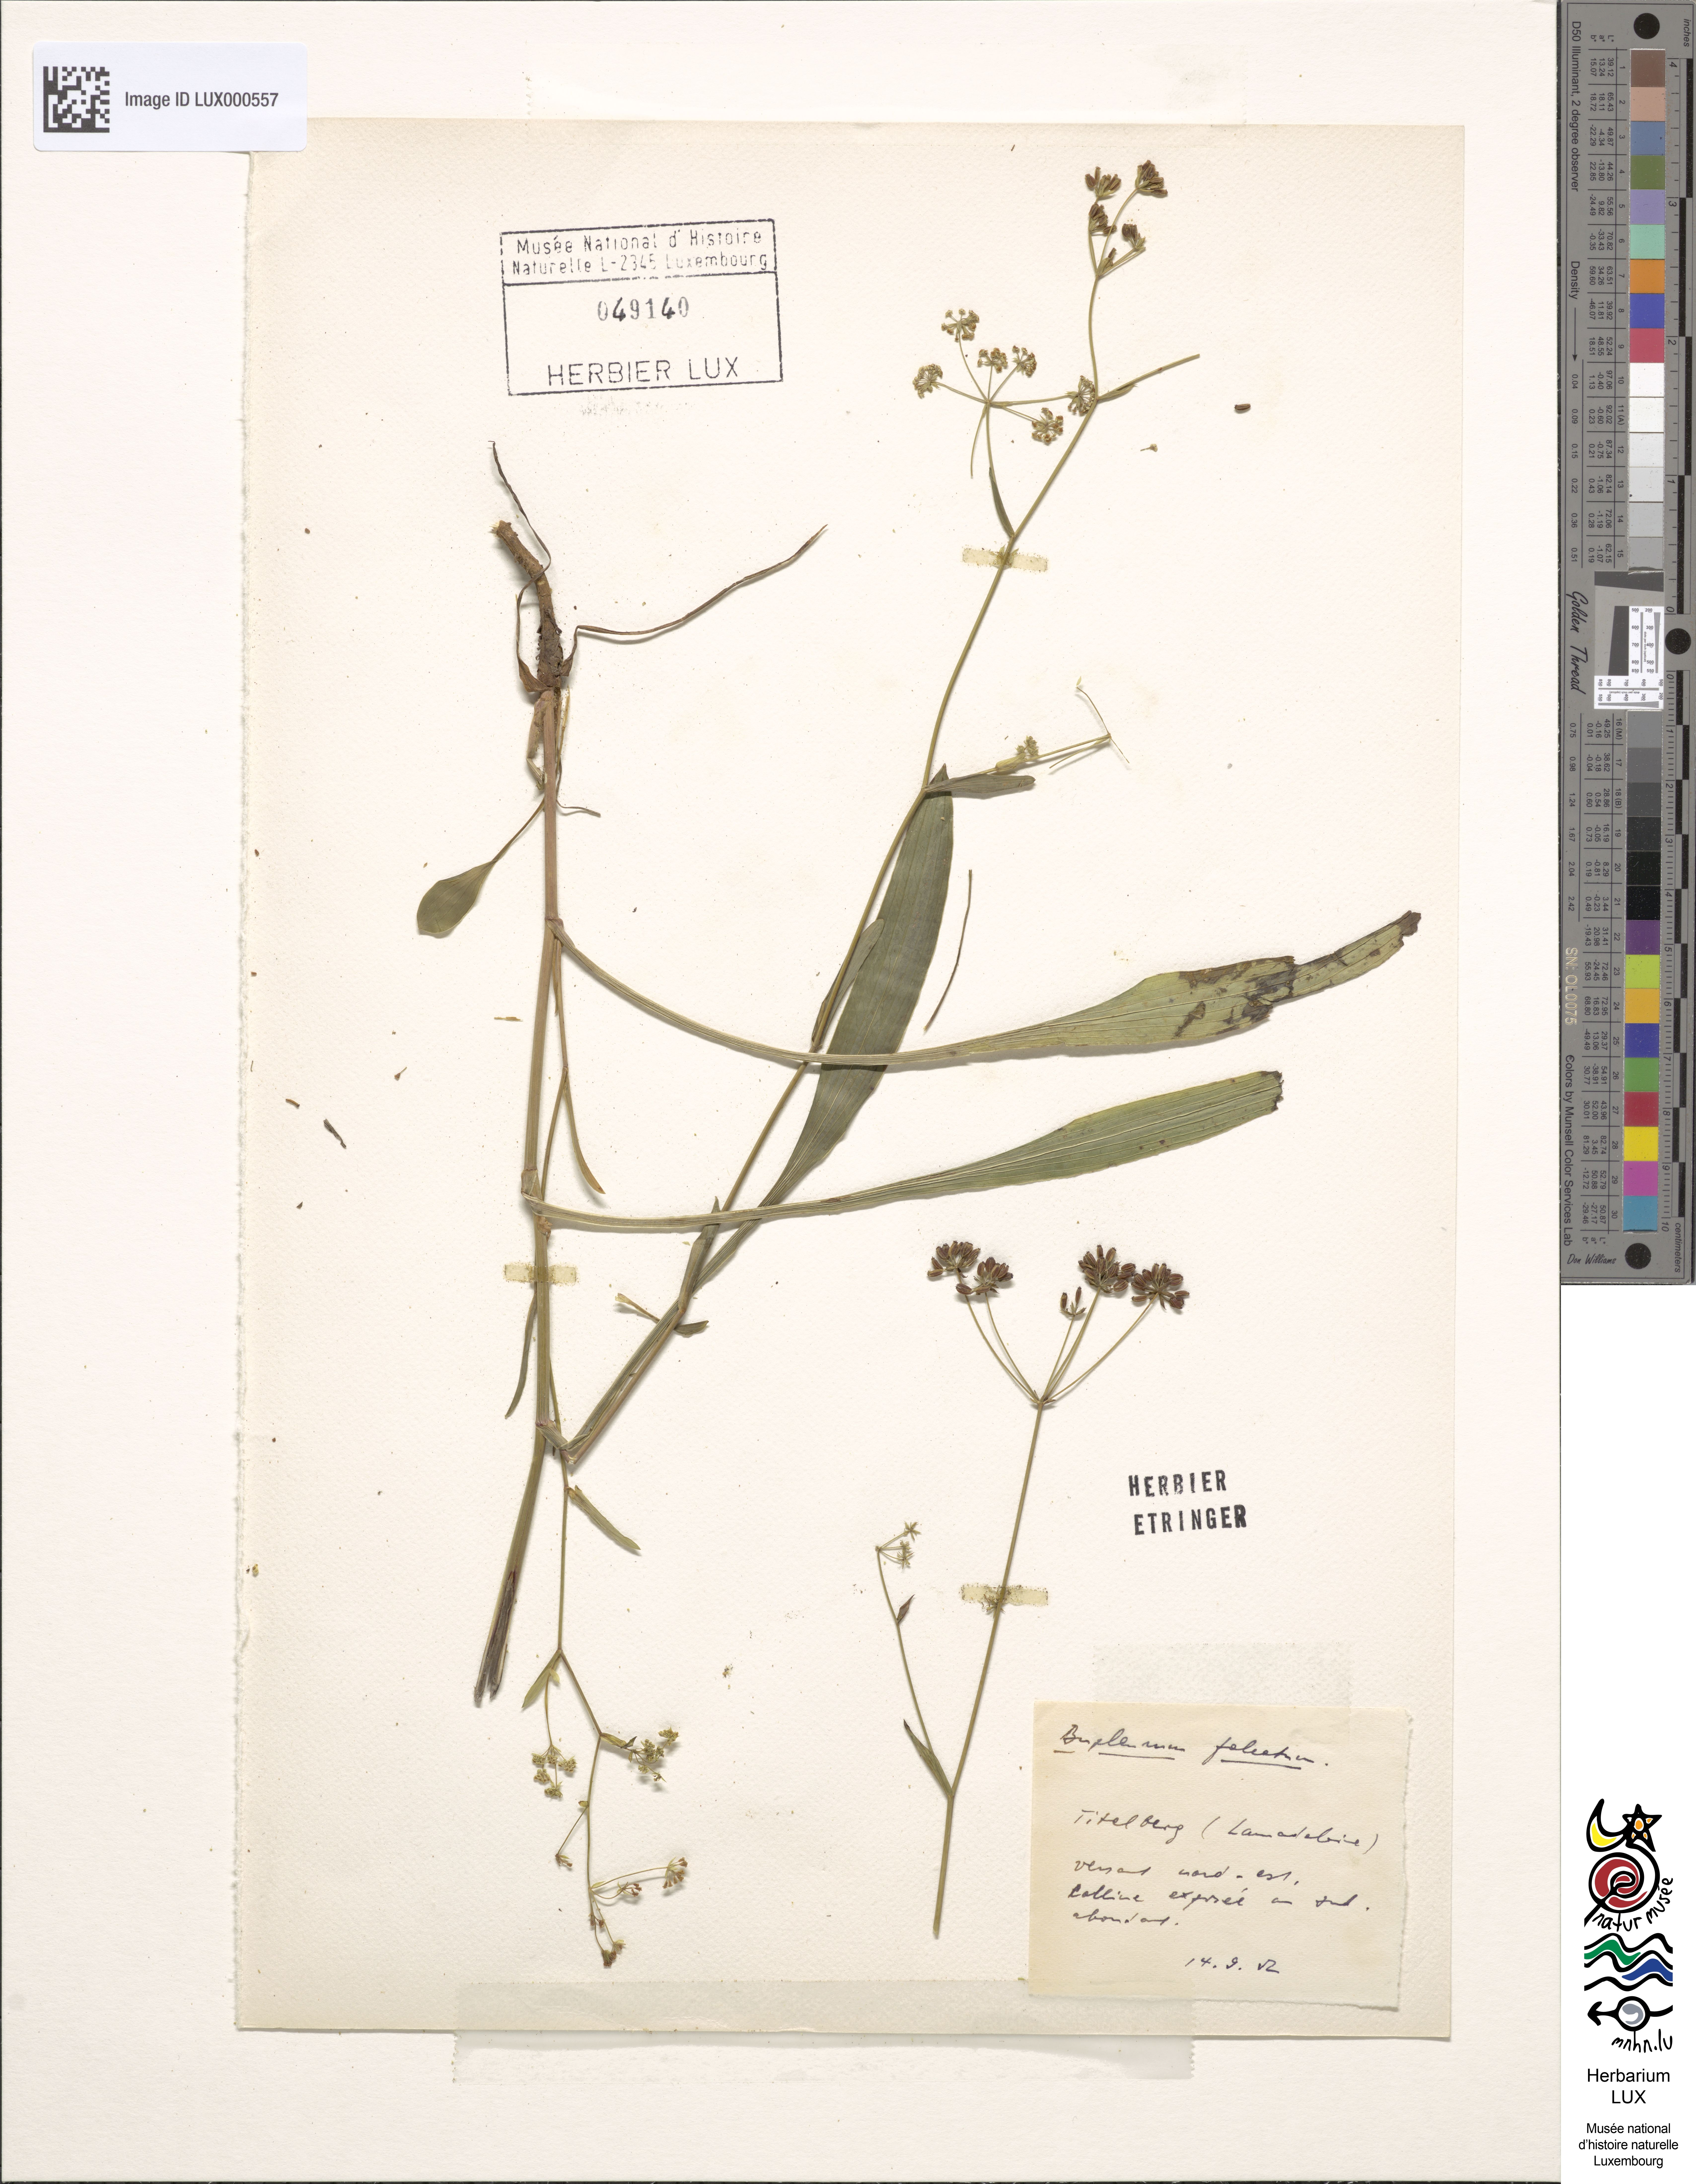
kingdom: Plantae
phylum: Tracheophyta
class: Magnoliopsida
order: Apiales
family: Apiaceae
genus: Bupleurum
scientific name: Bupleurum falcatum
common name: Sickle-leaved hare's-ear
